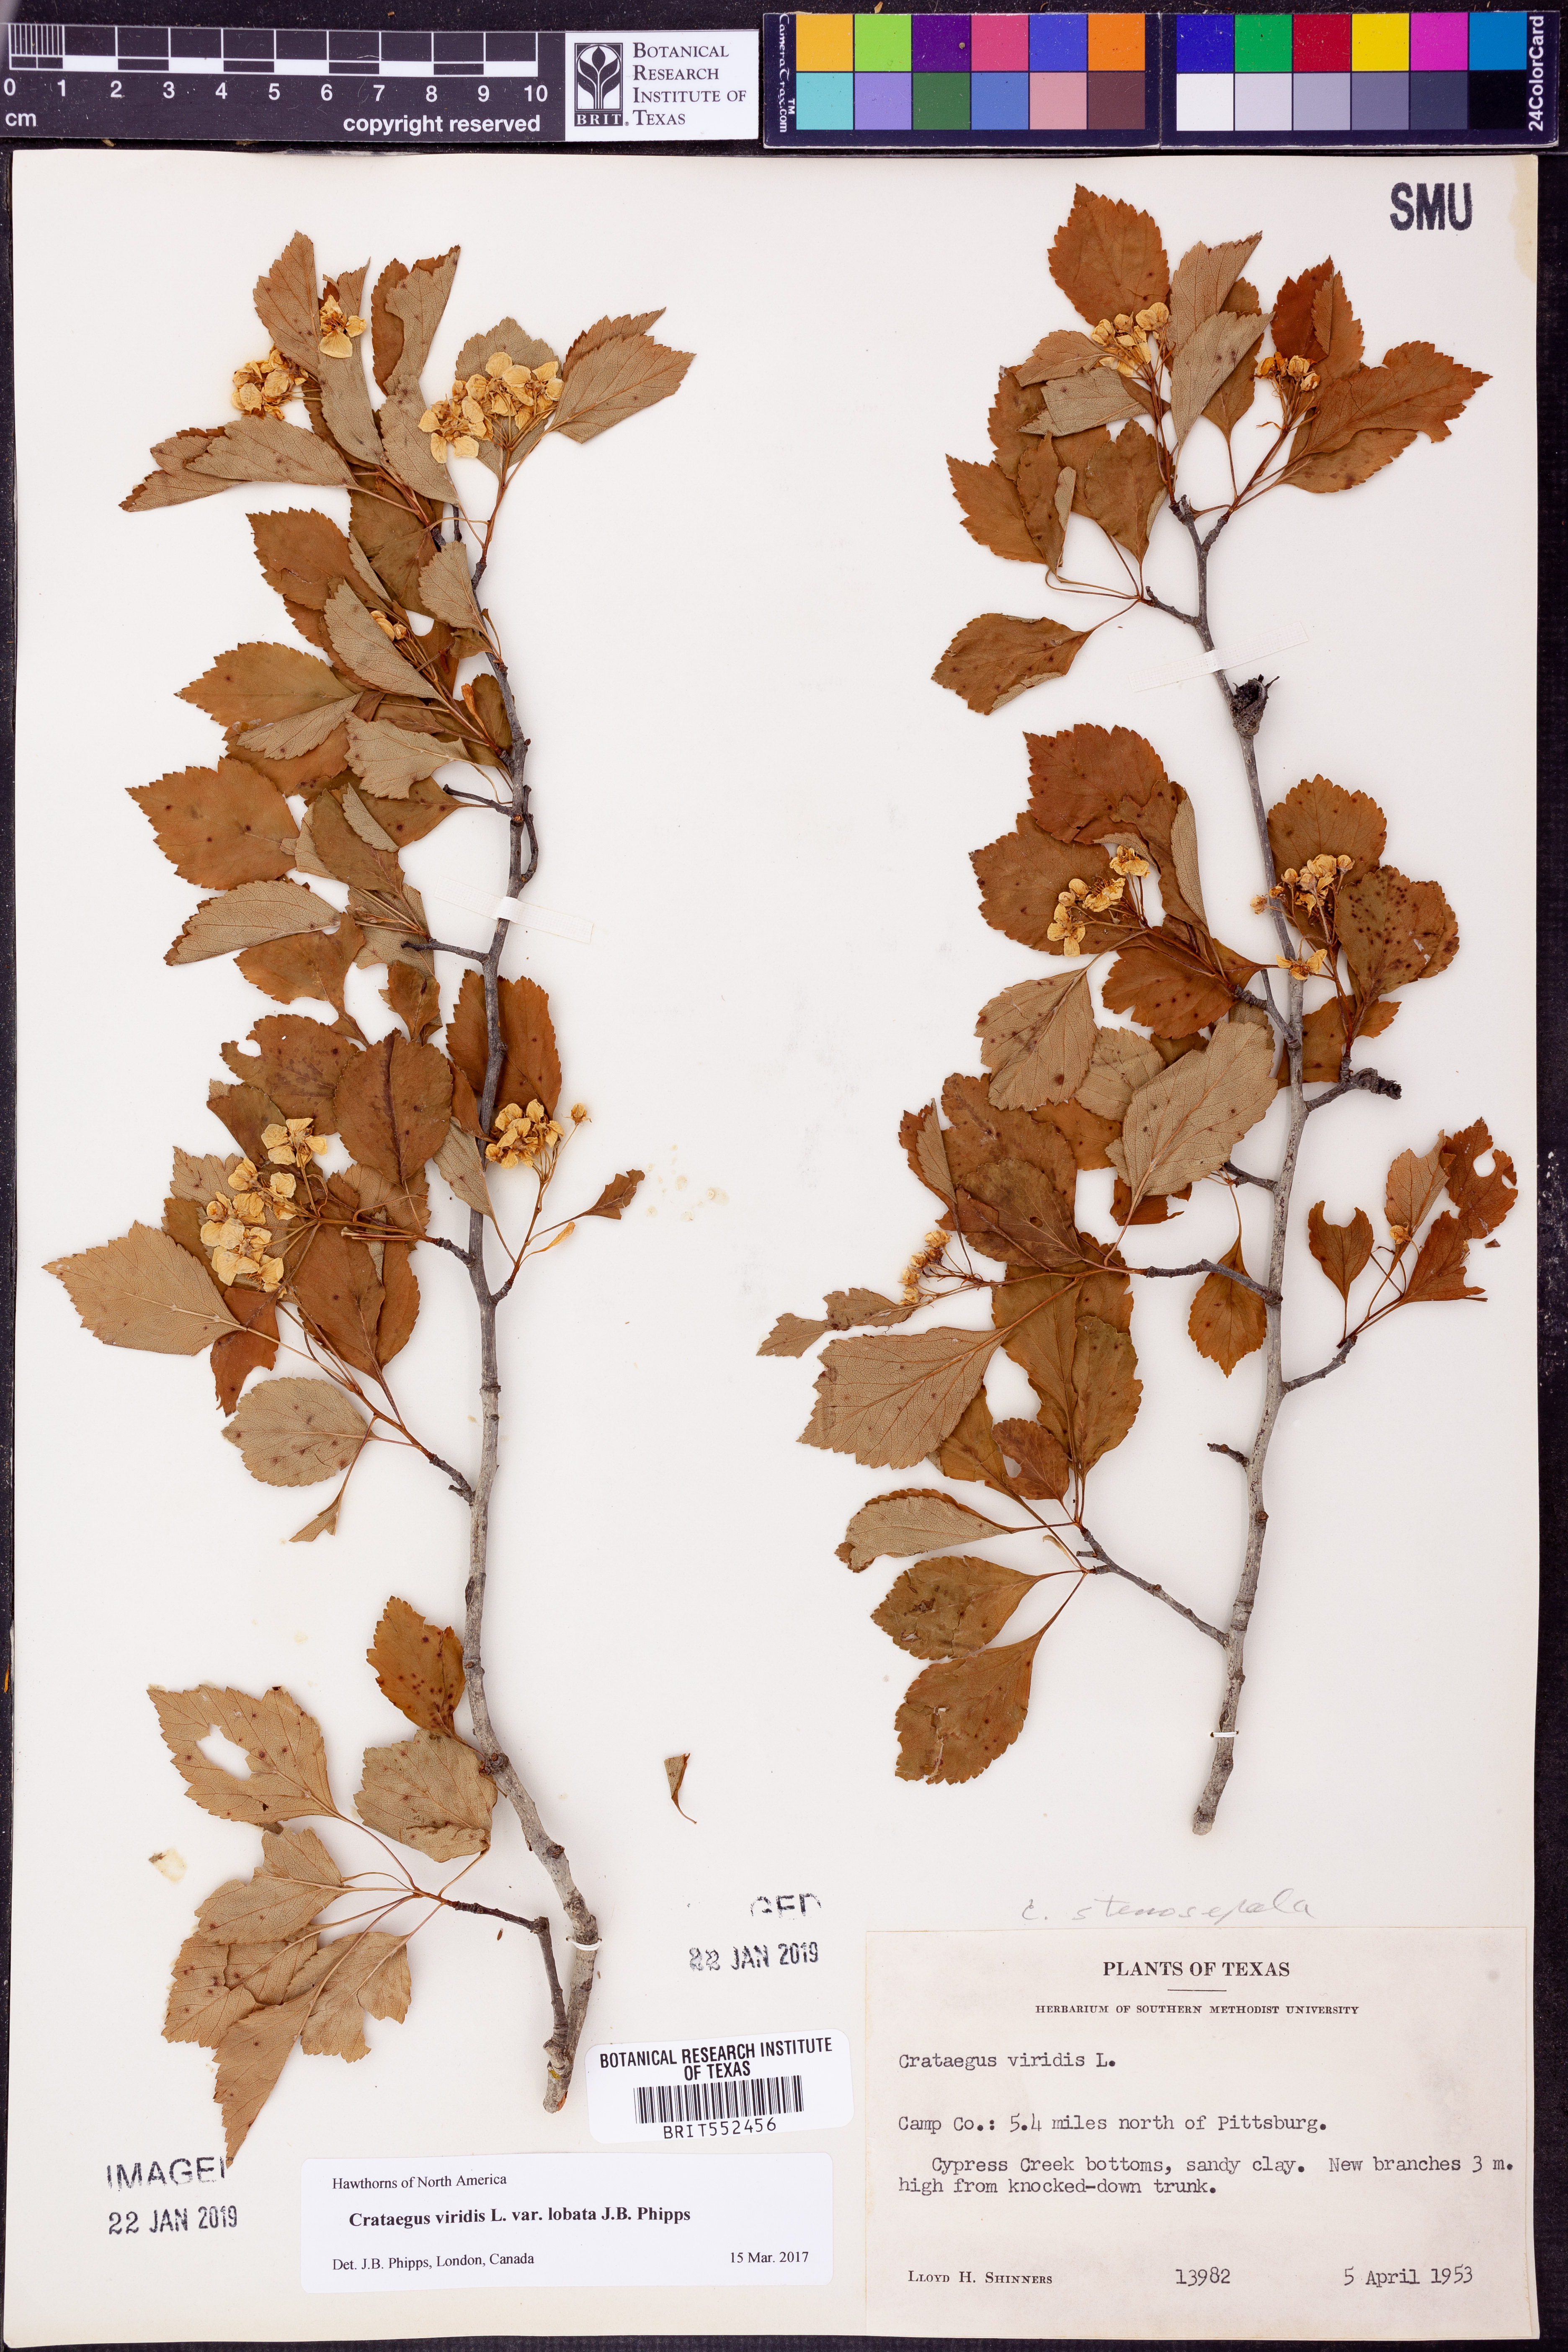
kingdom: Plantae
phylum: Tracheophyta
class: Magnoliopsida
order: Rosales
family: Rosaceae
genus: Crataegus
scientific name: Crataegus viridis
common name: Southernthorn
